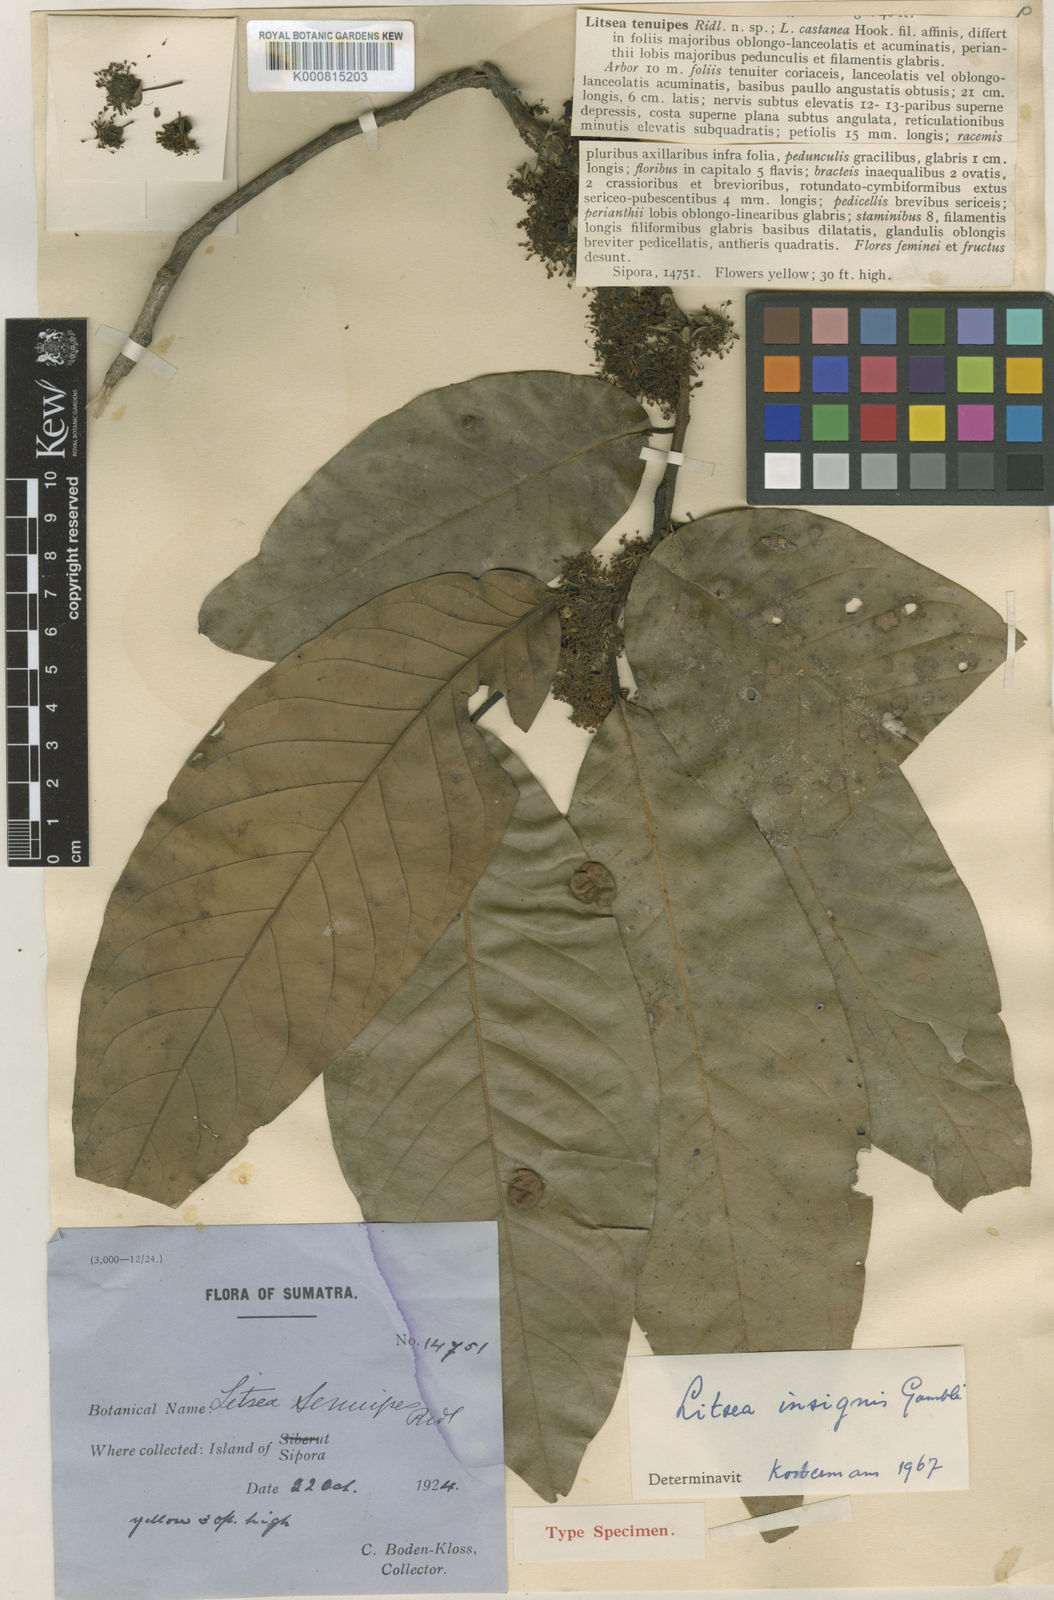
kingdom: Plantae
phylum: Tracheophyta
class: Magnoliopsida
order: Laurales
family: Lauraceae
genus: Litsea
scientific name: Litsea keralana
